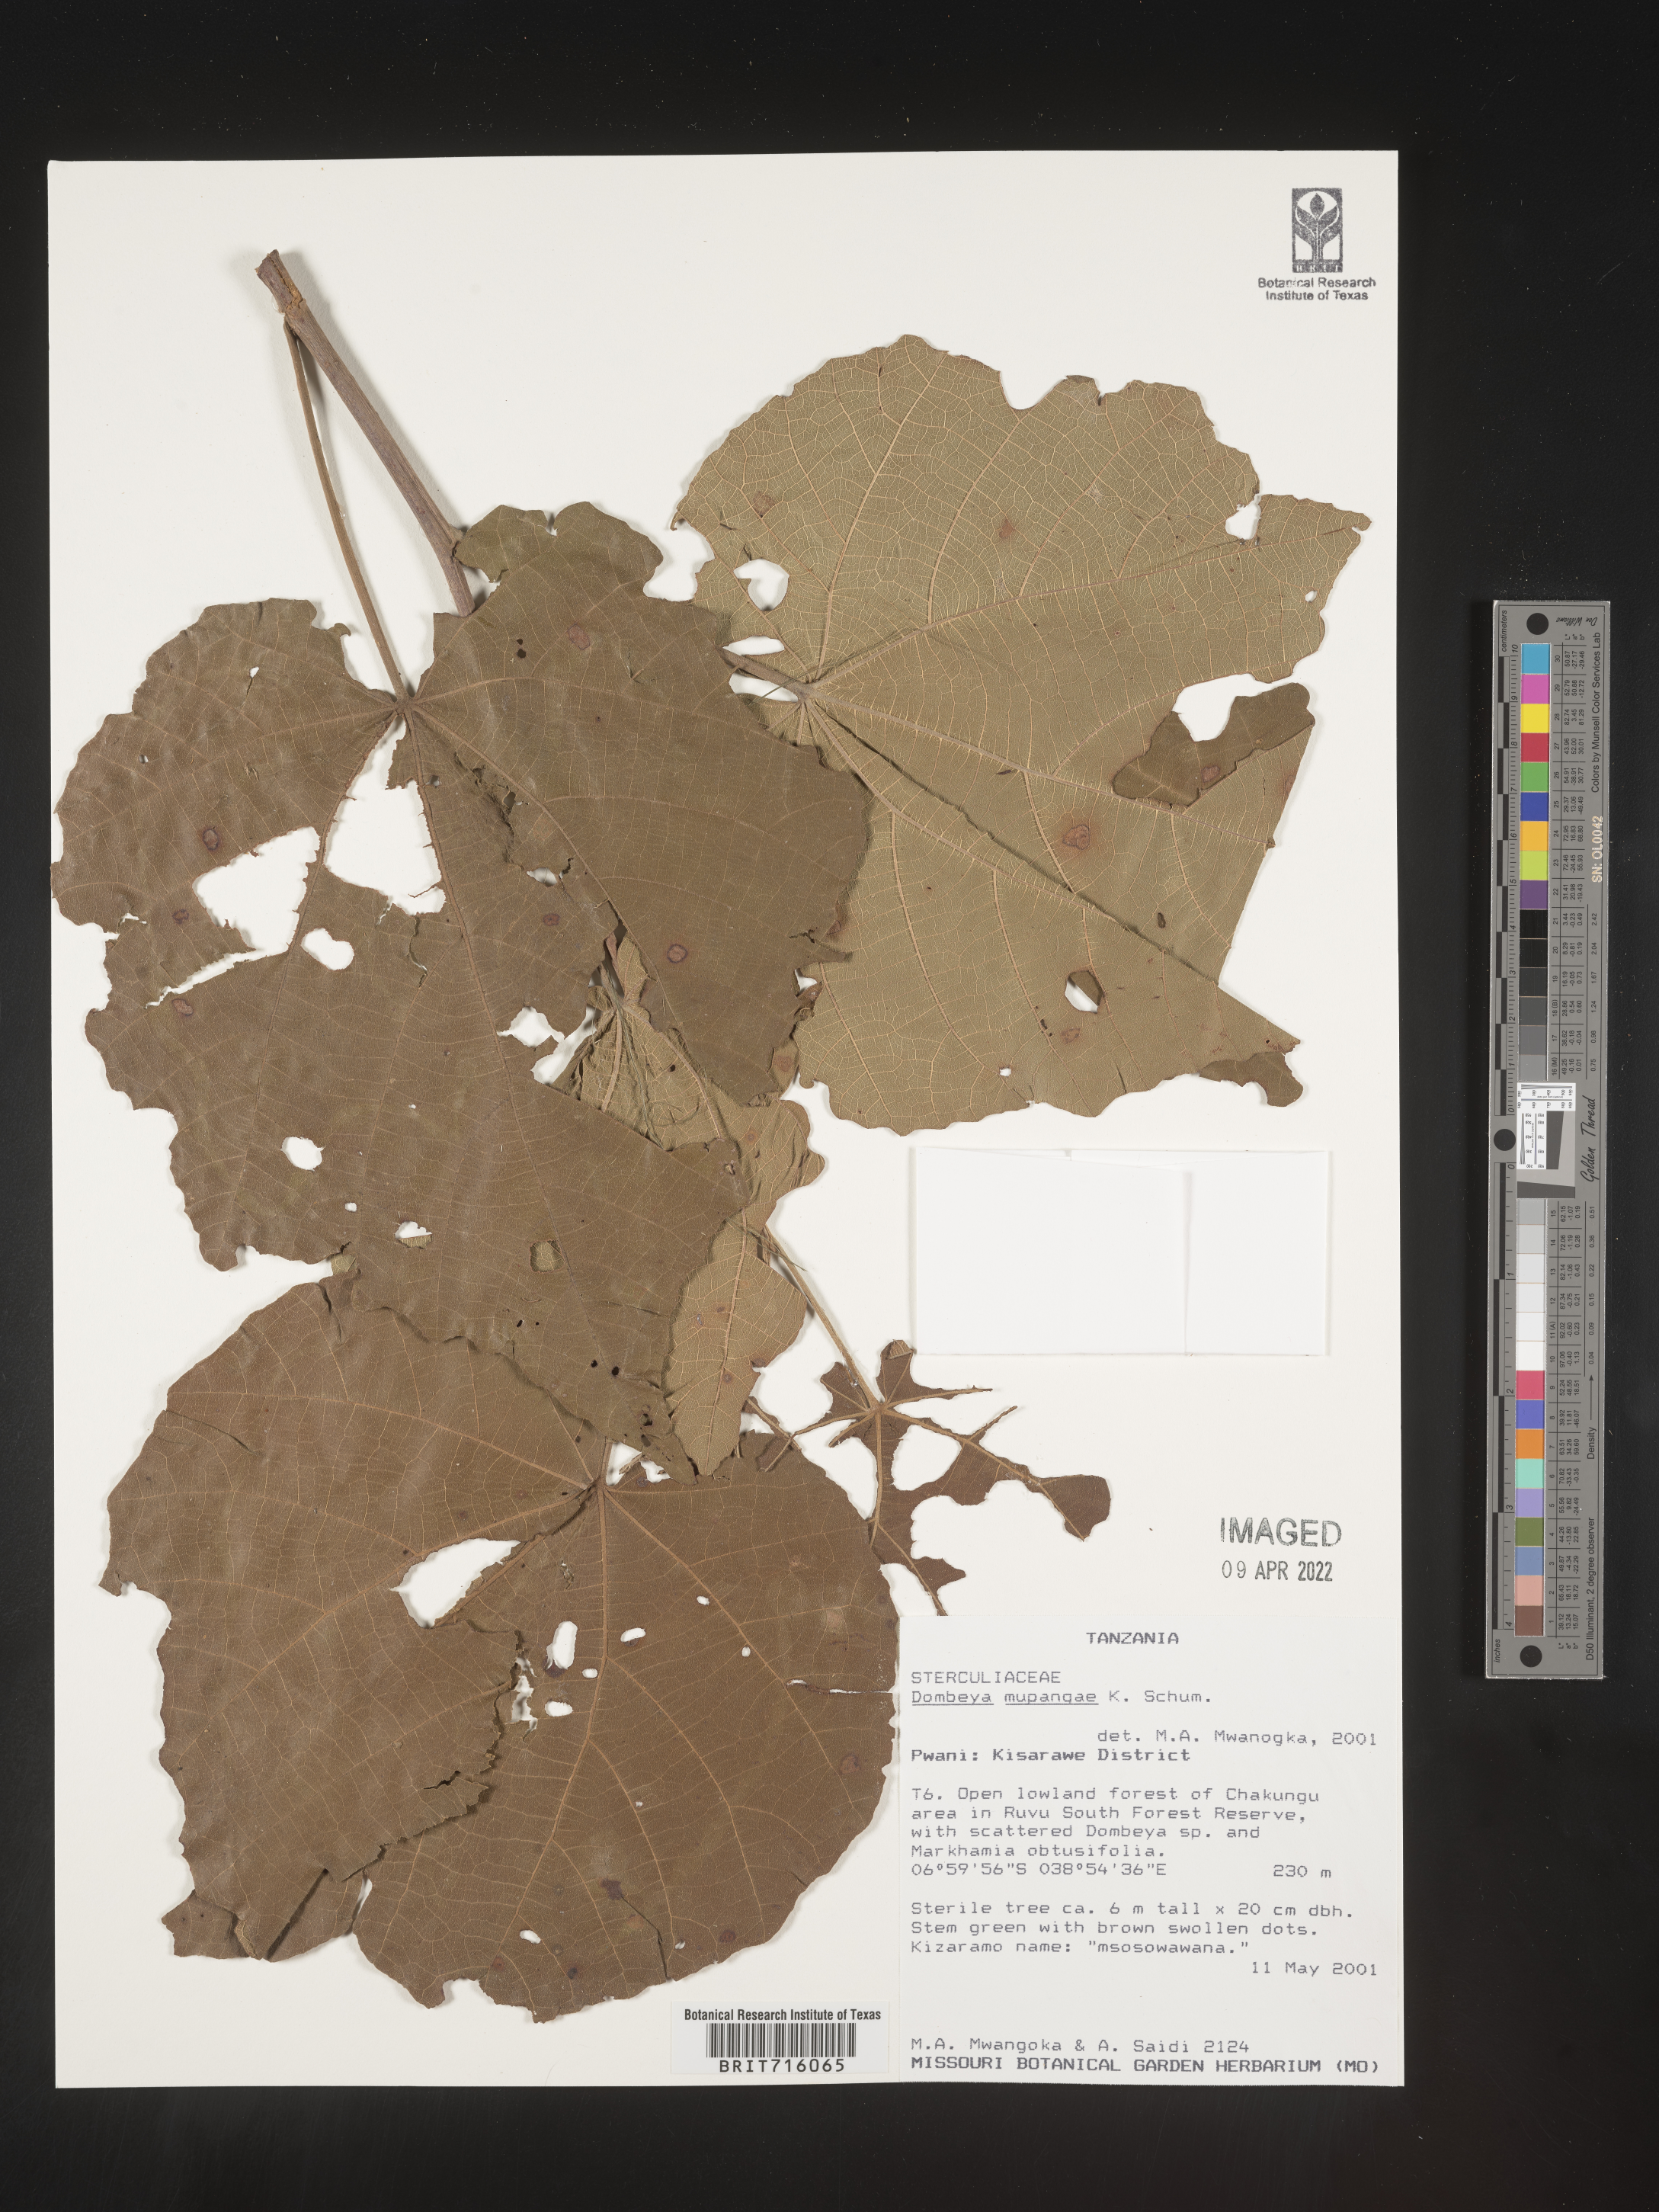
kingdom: Plantae
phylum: Tracheophyta
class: Magnoliopsida
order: Malvales
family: Malvaceae
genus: Dombeya
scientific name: Dombeya
